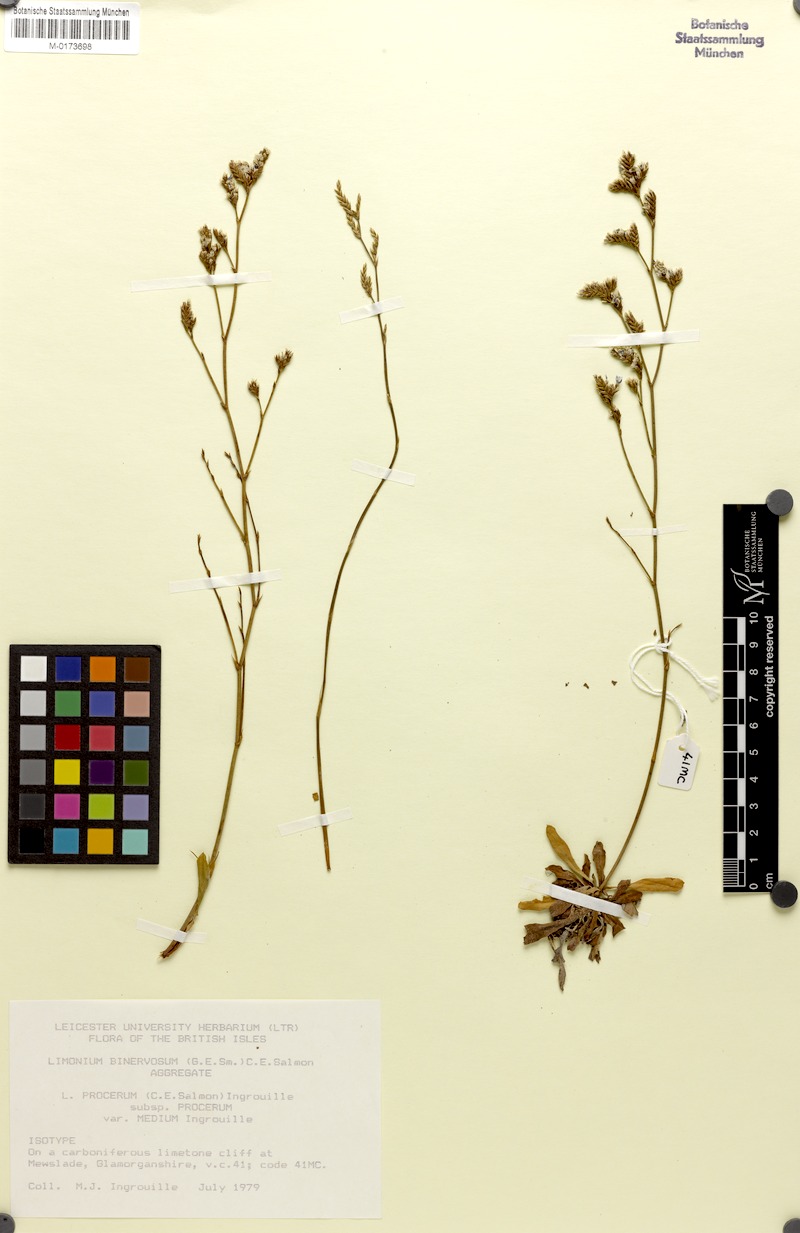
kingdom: Plantae
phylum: Tracheophyta
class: Magnoliopsida
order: Caryophyllales
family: Plumbaginaceae
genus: Limonium
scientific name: Limonium procerum
